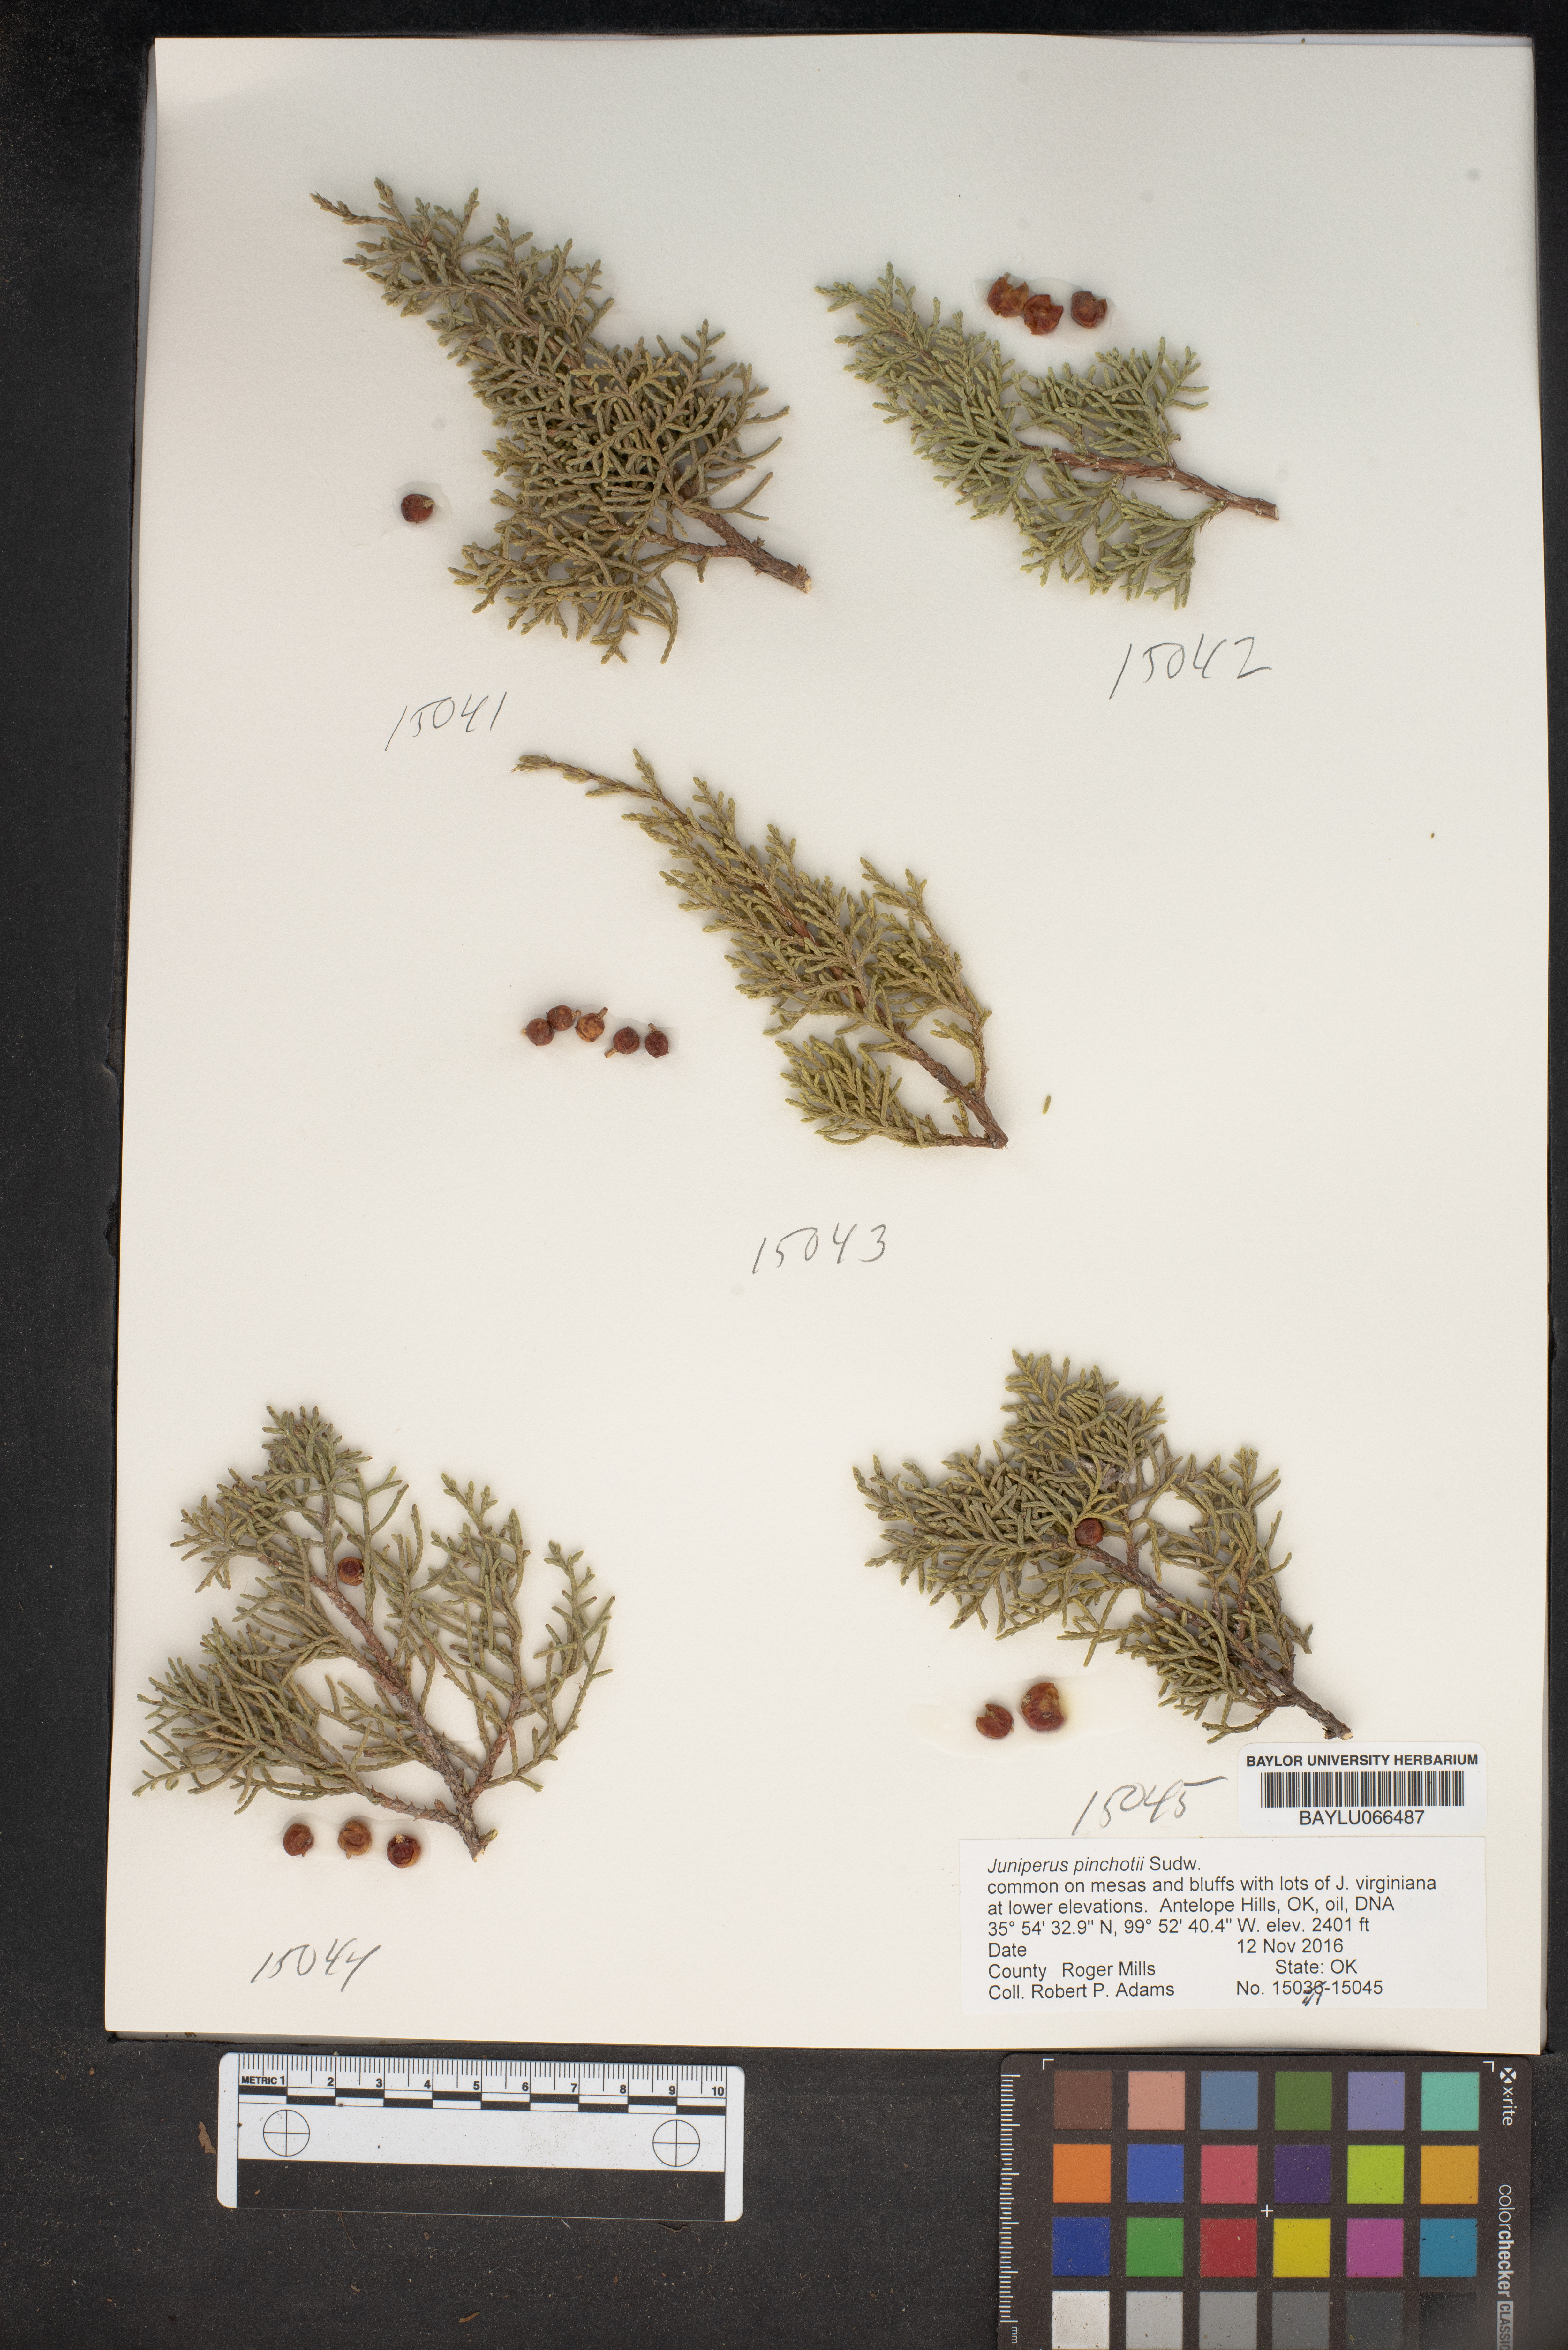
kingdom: Plantae
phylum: Tracheophyta
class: Pinopsida
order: Pinales
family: Cupressaceae
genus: Juniperus
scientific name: Juniperus pinchotii
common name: Pinchot juniper
